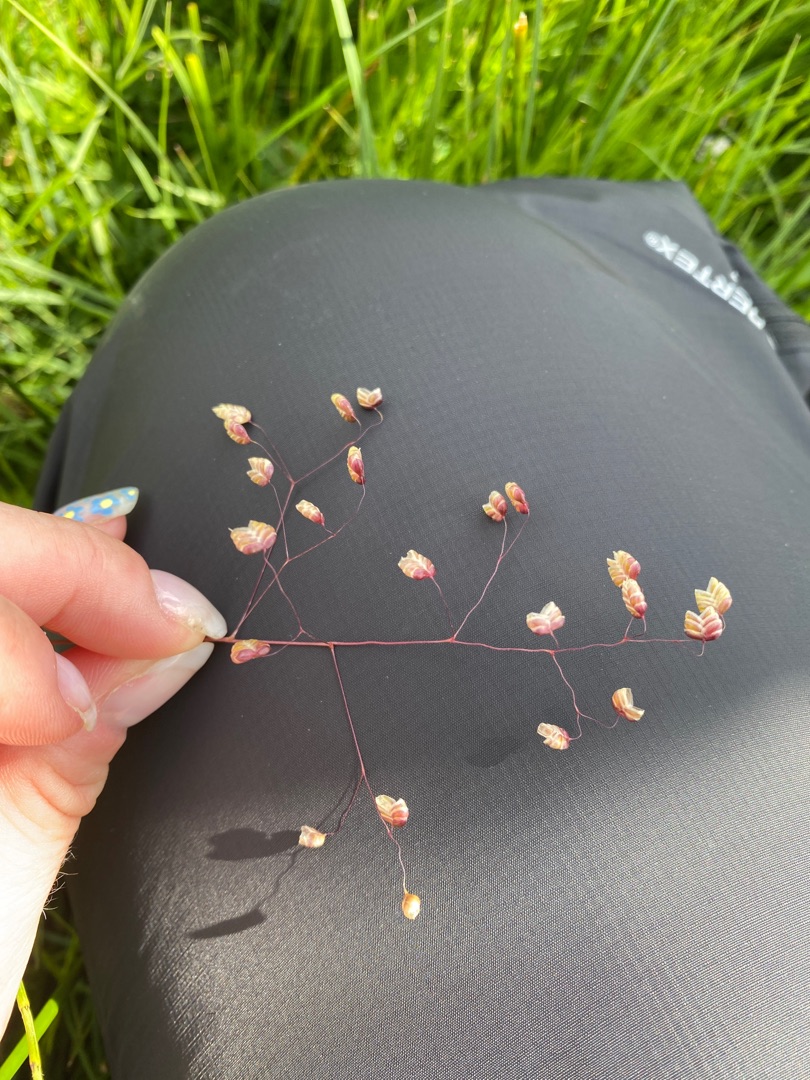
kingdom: Plantae
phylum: Tracheophyta
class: Liliopsida
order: Poales
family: Poaceae
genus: Briza
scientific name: Briza media
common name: Hjertegræs
